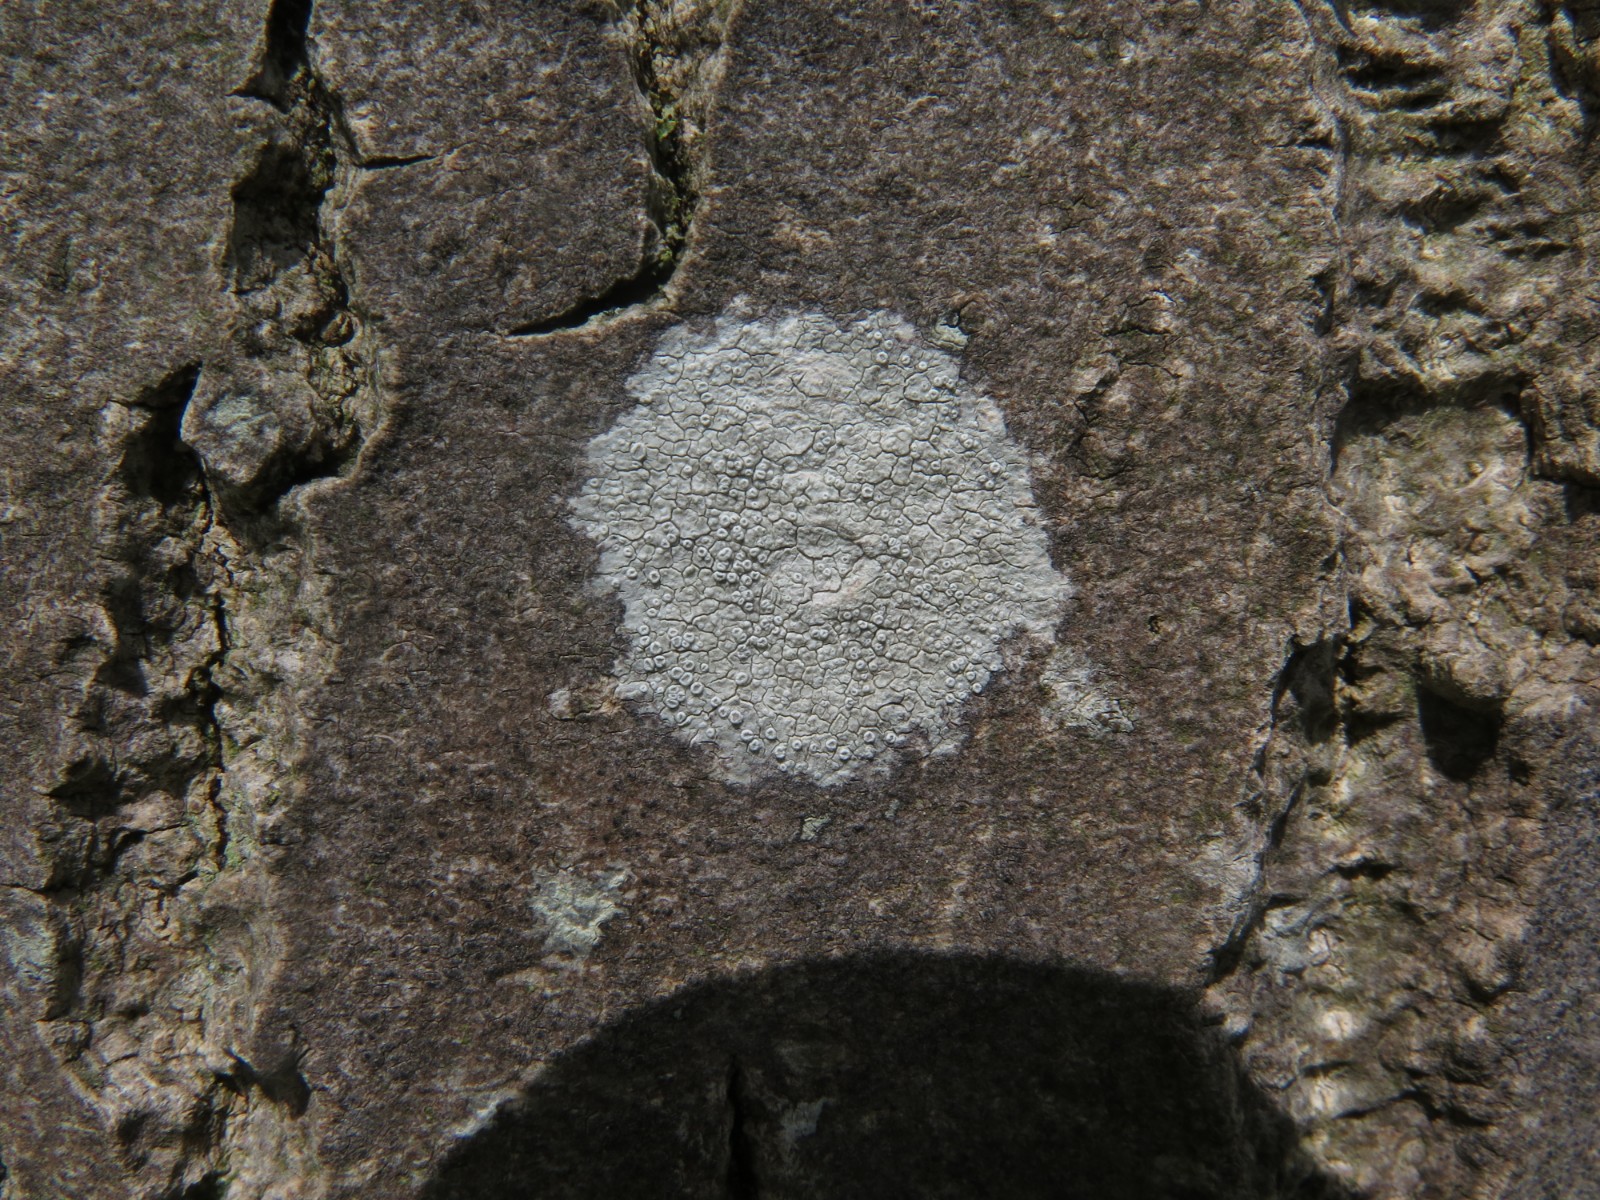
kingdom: Fungi
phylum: Ascomycota
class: Lecanoromycetes
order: Ostropales
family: Phlyctidaceae
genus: Phlyctis
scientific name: Phlyctis argena
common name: almindelig sølvlav
